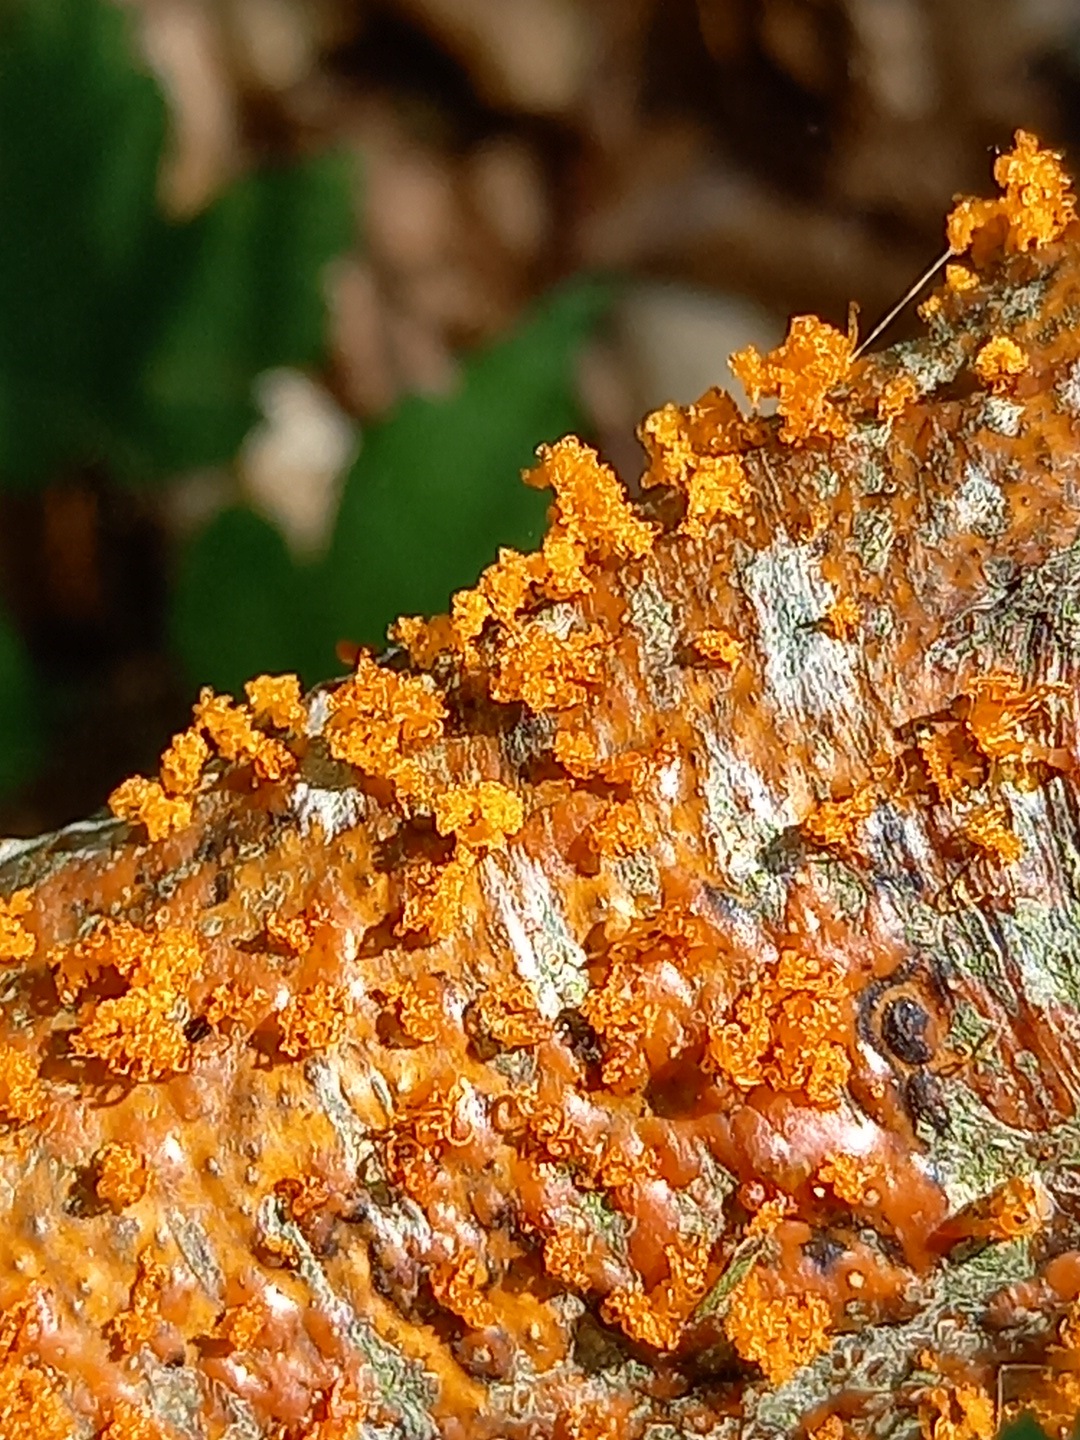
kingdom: Fungi
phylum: Ascomycota
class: Sordariomycetes
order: Xylariales
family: Diatrypaceae
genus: Eutypella
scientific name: Eutypella quaternata
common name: bøge-korsprik
